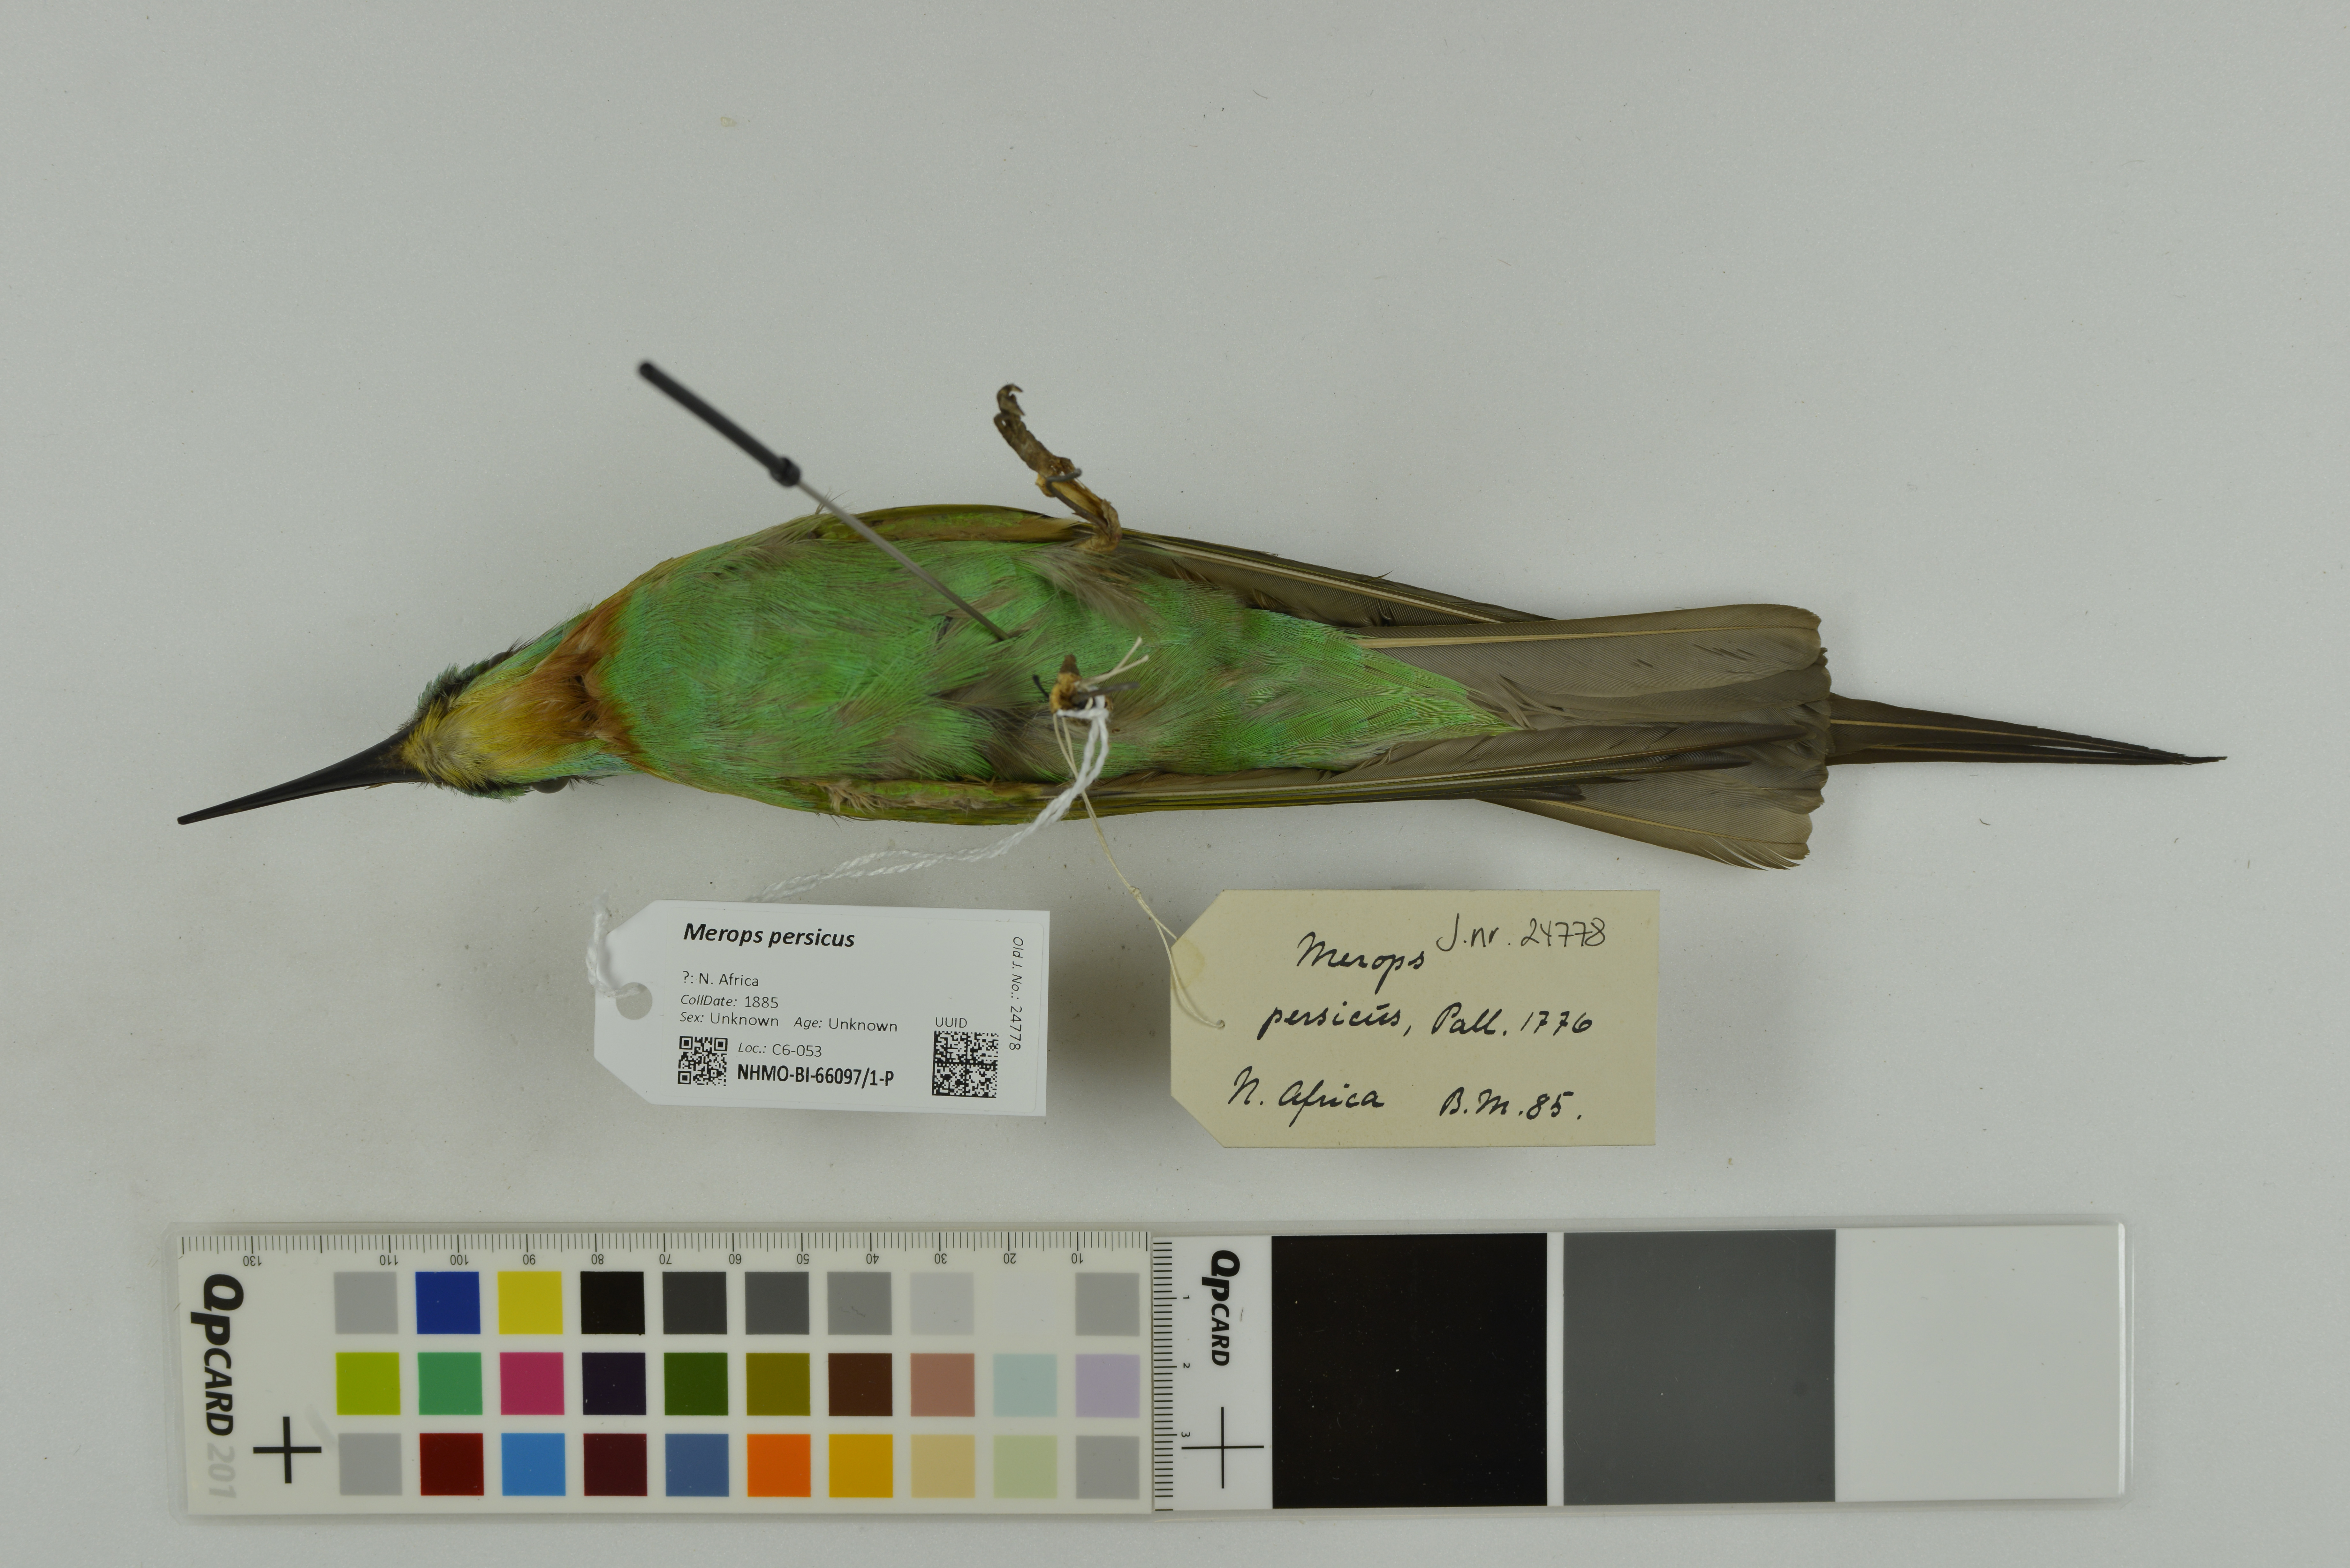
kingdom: Animalia
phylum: Chordata
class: Aves
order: Coraciiformes
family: Meropidae
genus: Merops
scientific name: Merops persicus
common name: Blue-cheeked bee-eater
